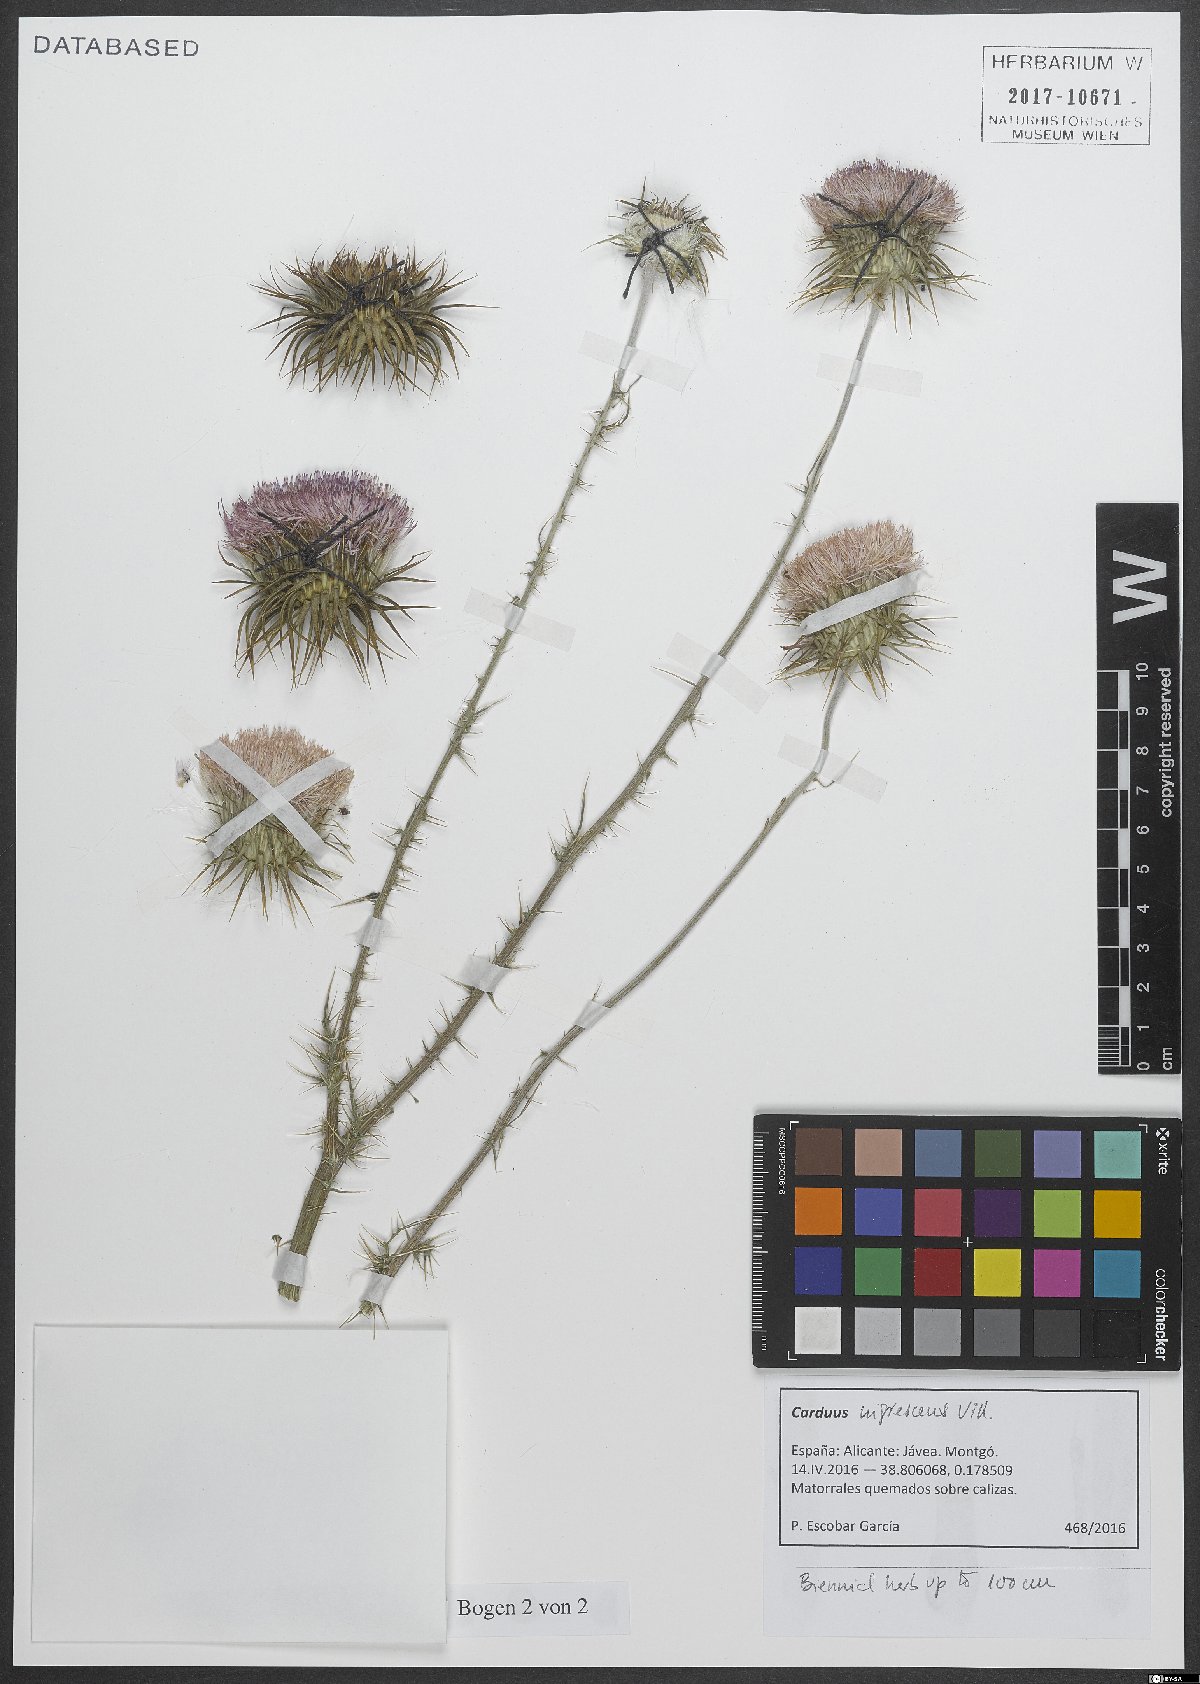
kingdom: Plantae
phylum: Tracheophyta
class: Magnoliopsida
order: Asterales
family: Asteraceae
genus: Carduus
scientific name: Carduus nigrescens
